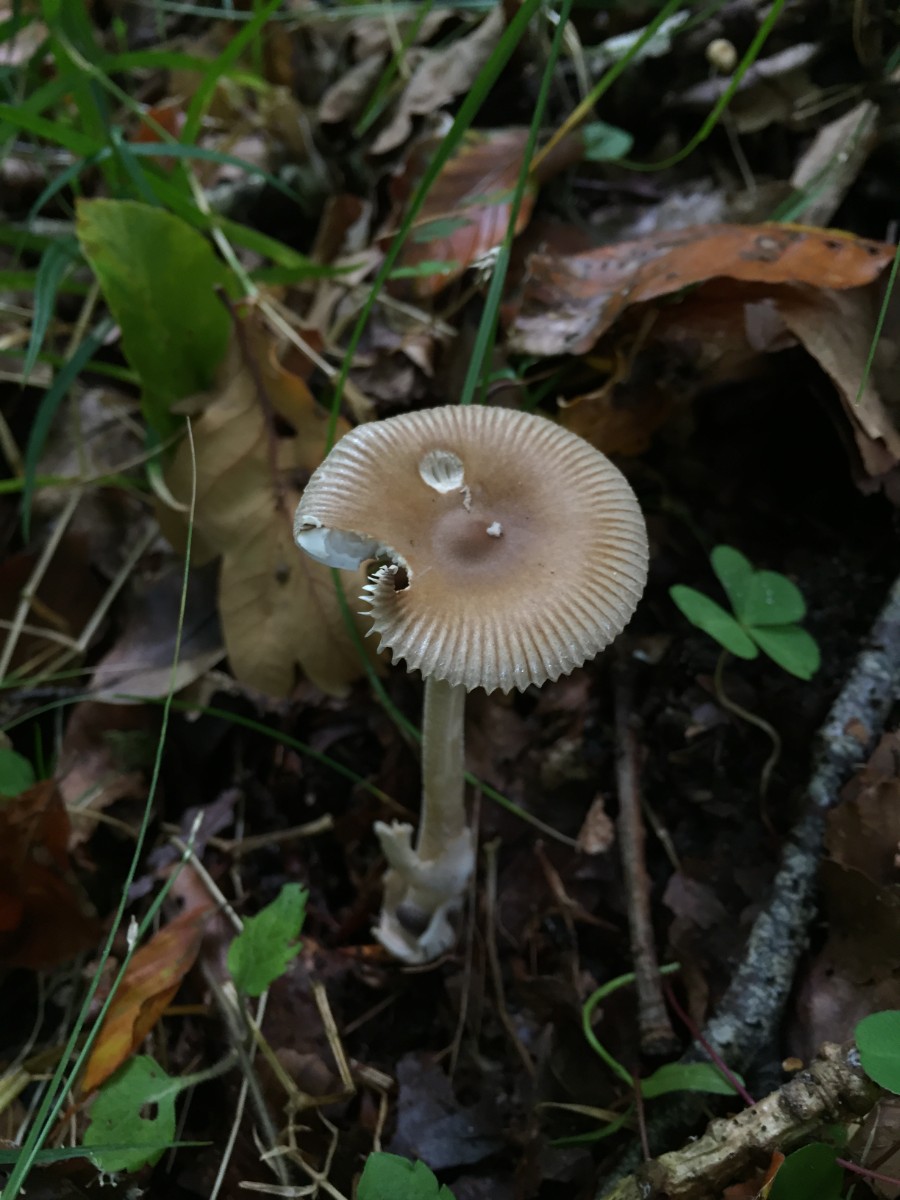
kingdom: Fungi
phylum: Basidiomycota
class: Agaricomycetes
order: Agaricales
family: Amanitaceae
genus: Amanita
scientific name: Amanita olivaceogrisea
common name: olivengrå kam-fluesvamp
